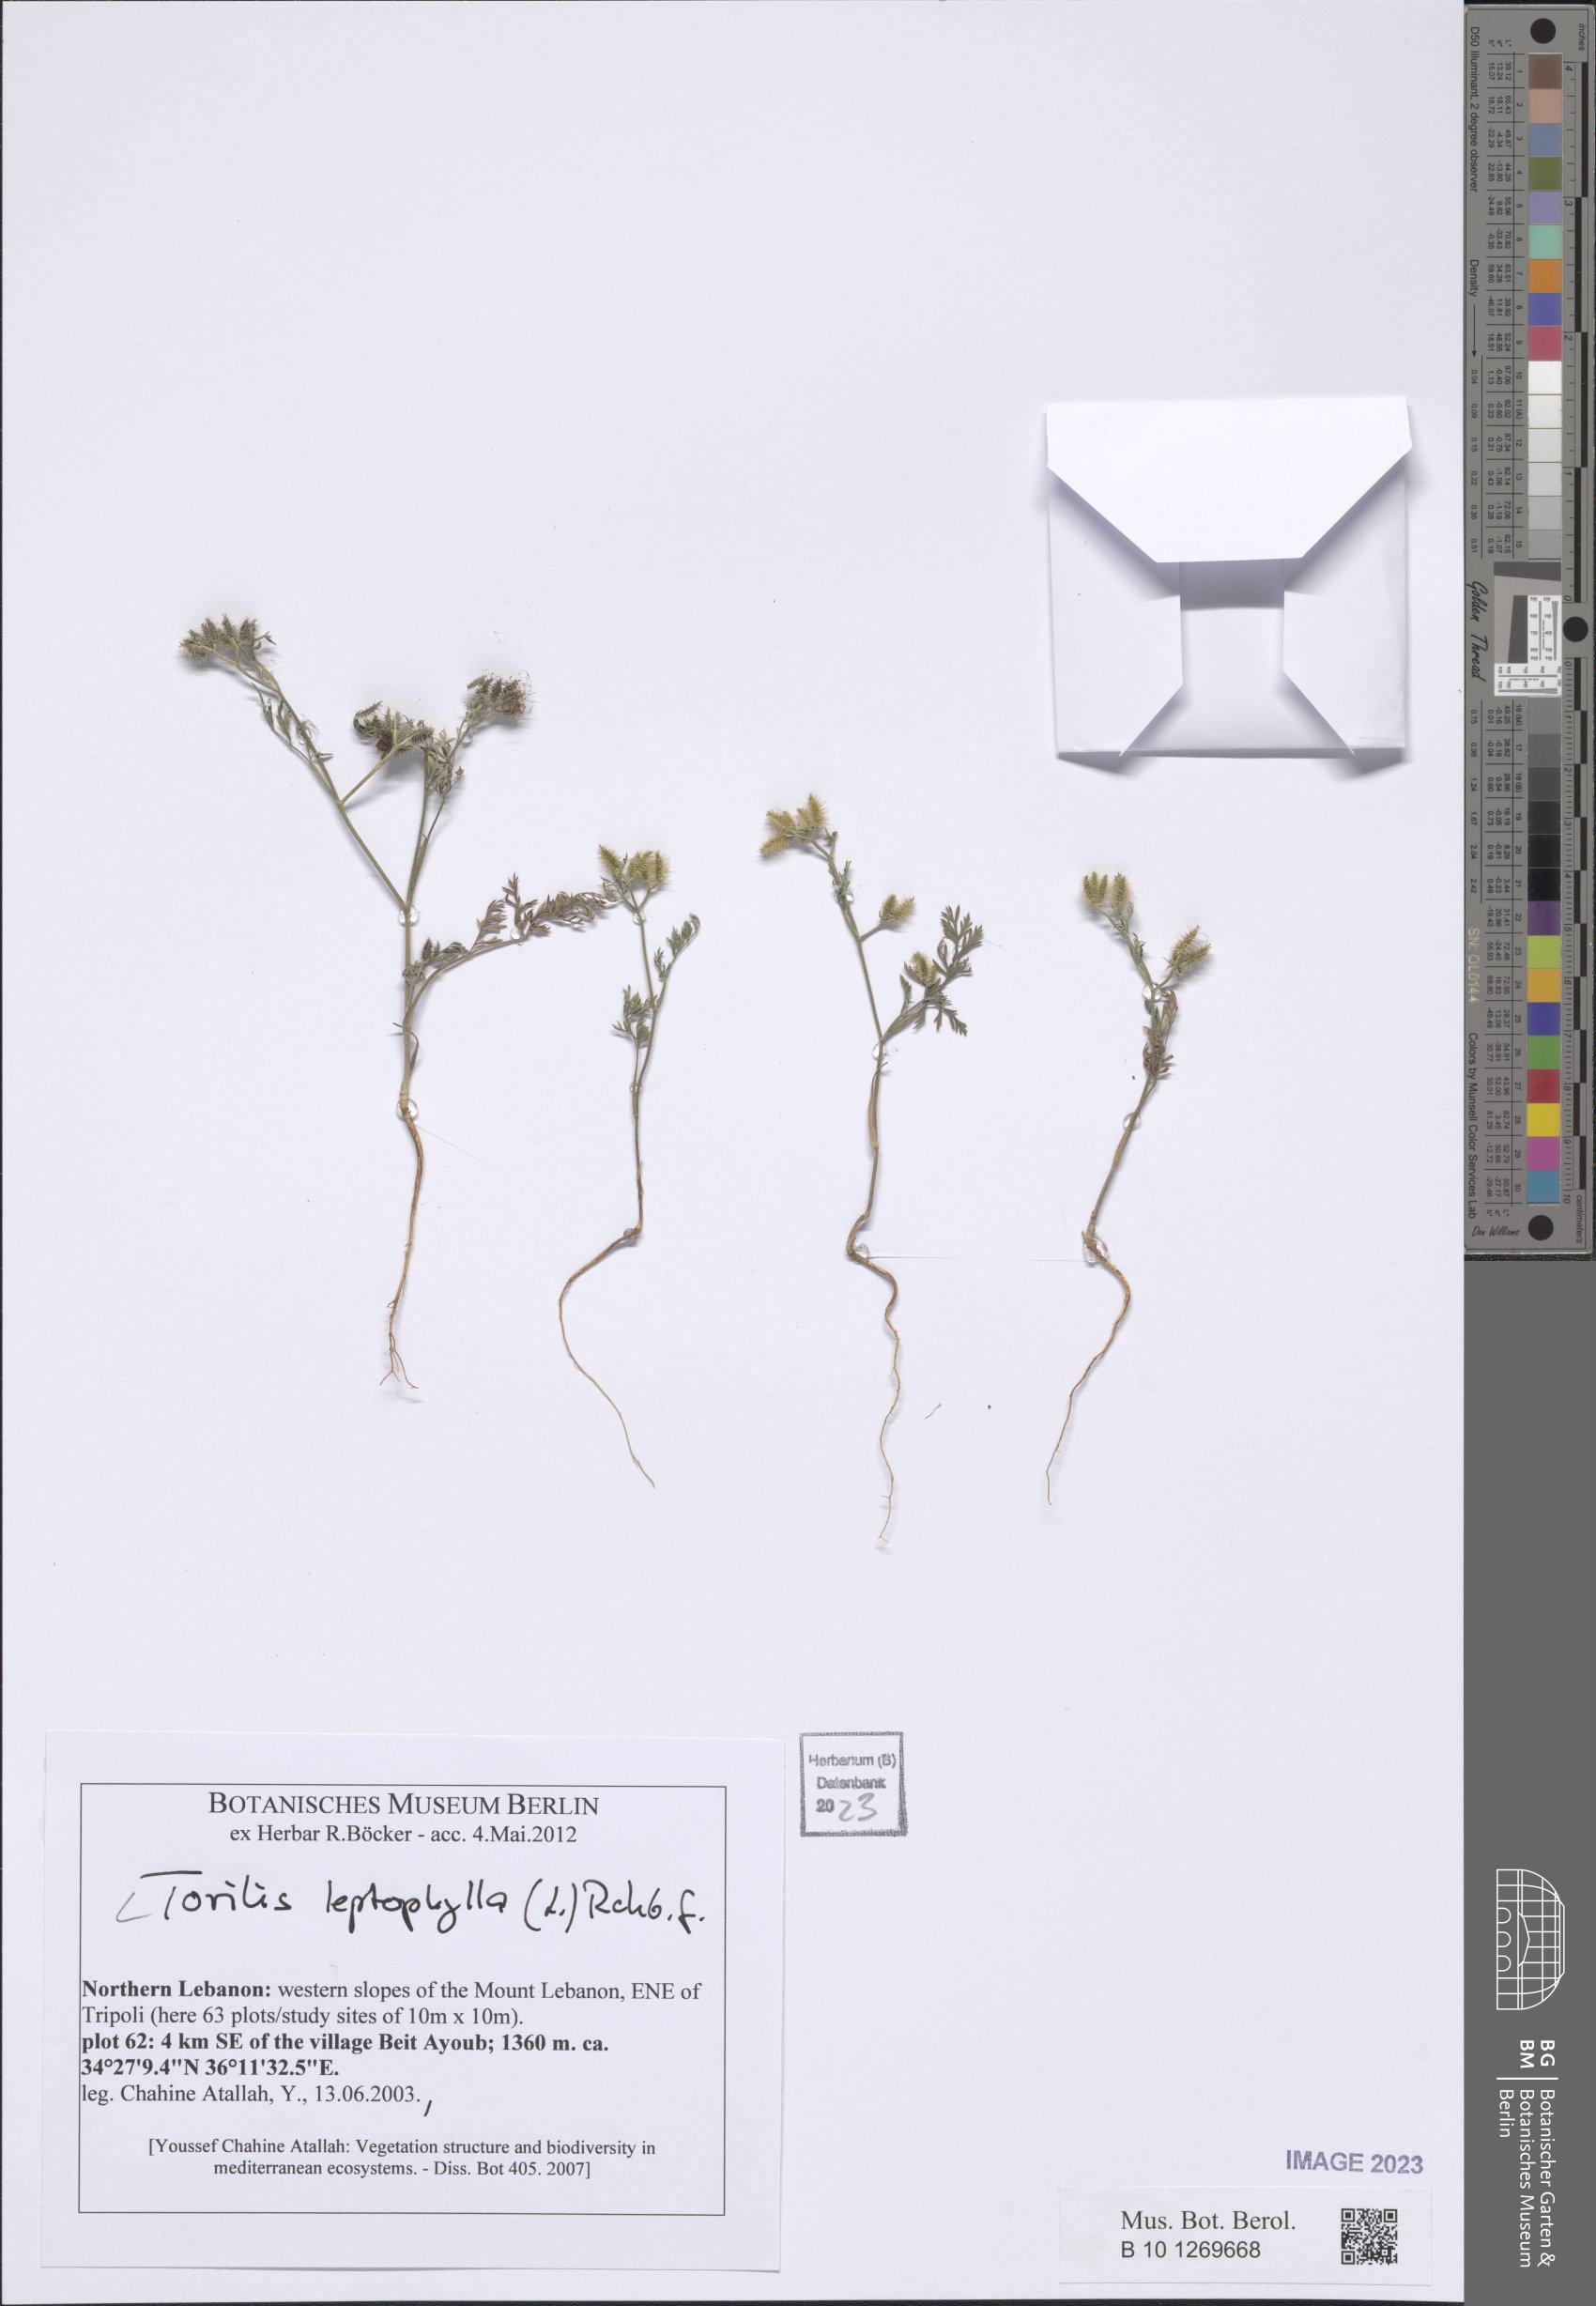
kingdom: Plantae
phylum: Tracheophyta
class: Magnoliopsida
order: Apiales
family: Apiaceae
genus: Torilis
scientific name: Torilis leptophylla
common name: Bristlefruit hedgeparsley
